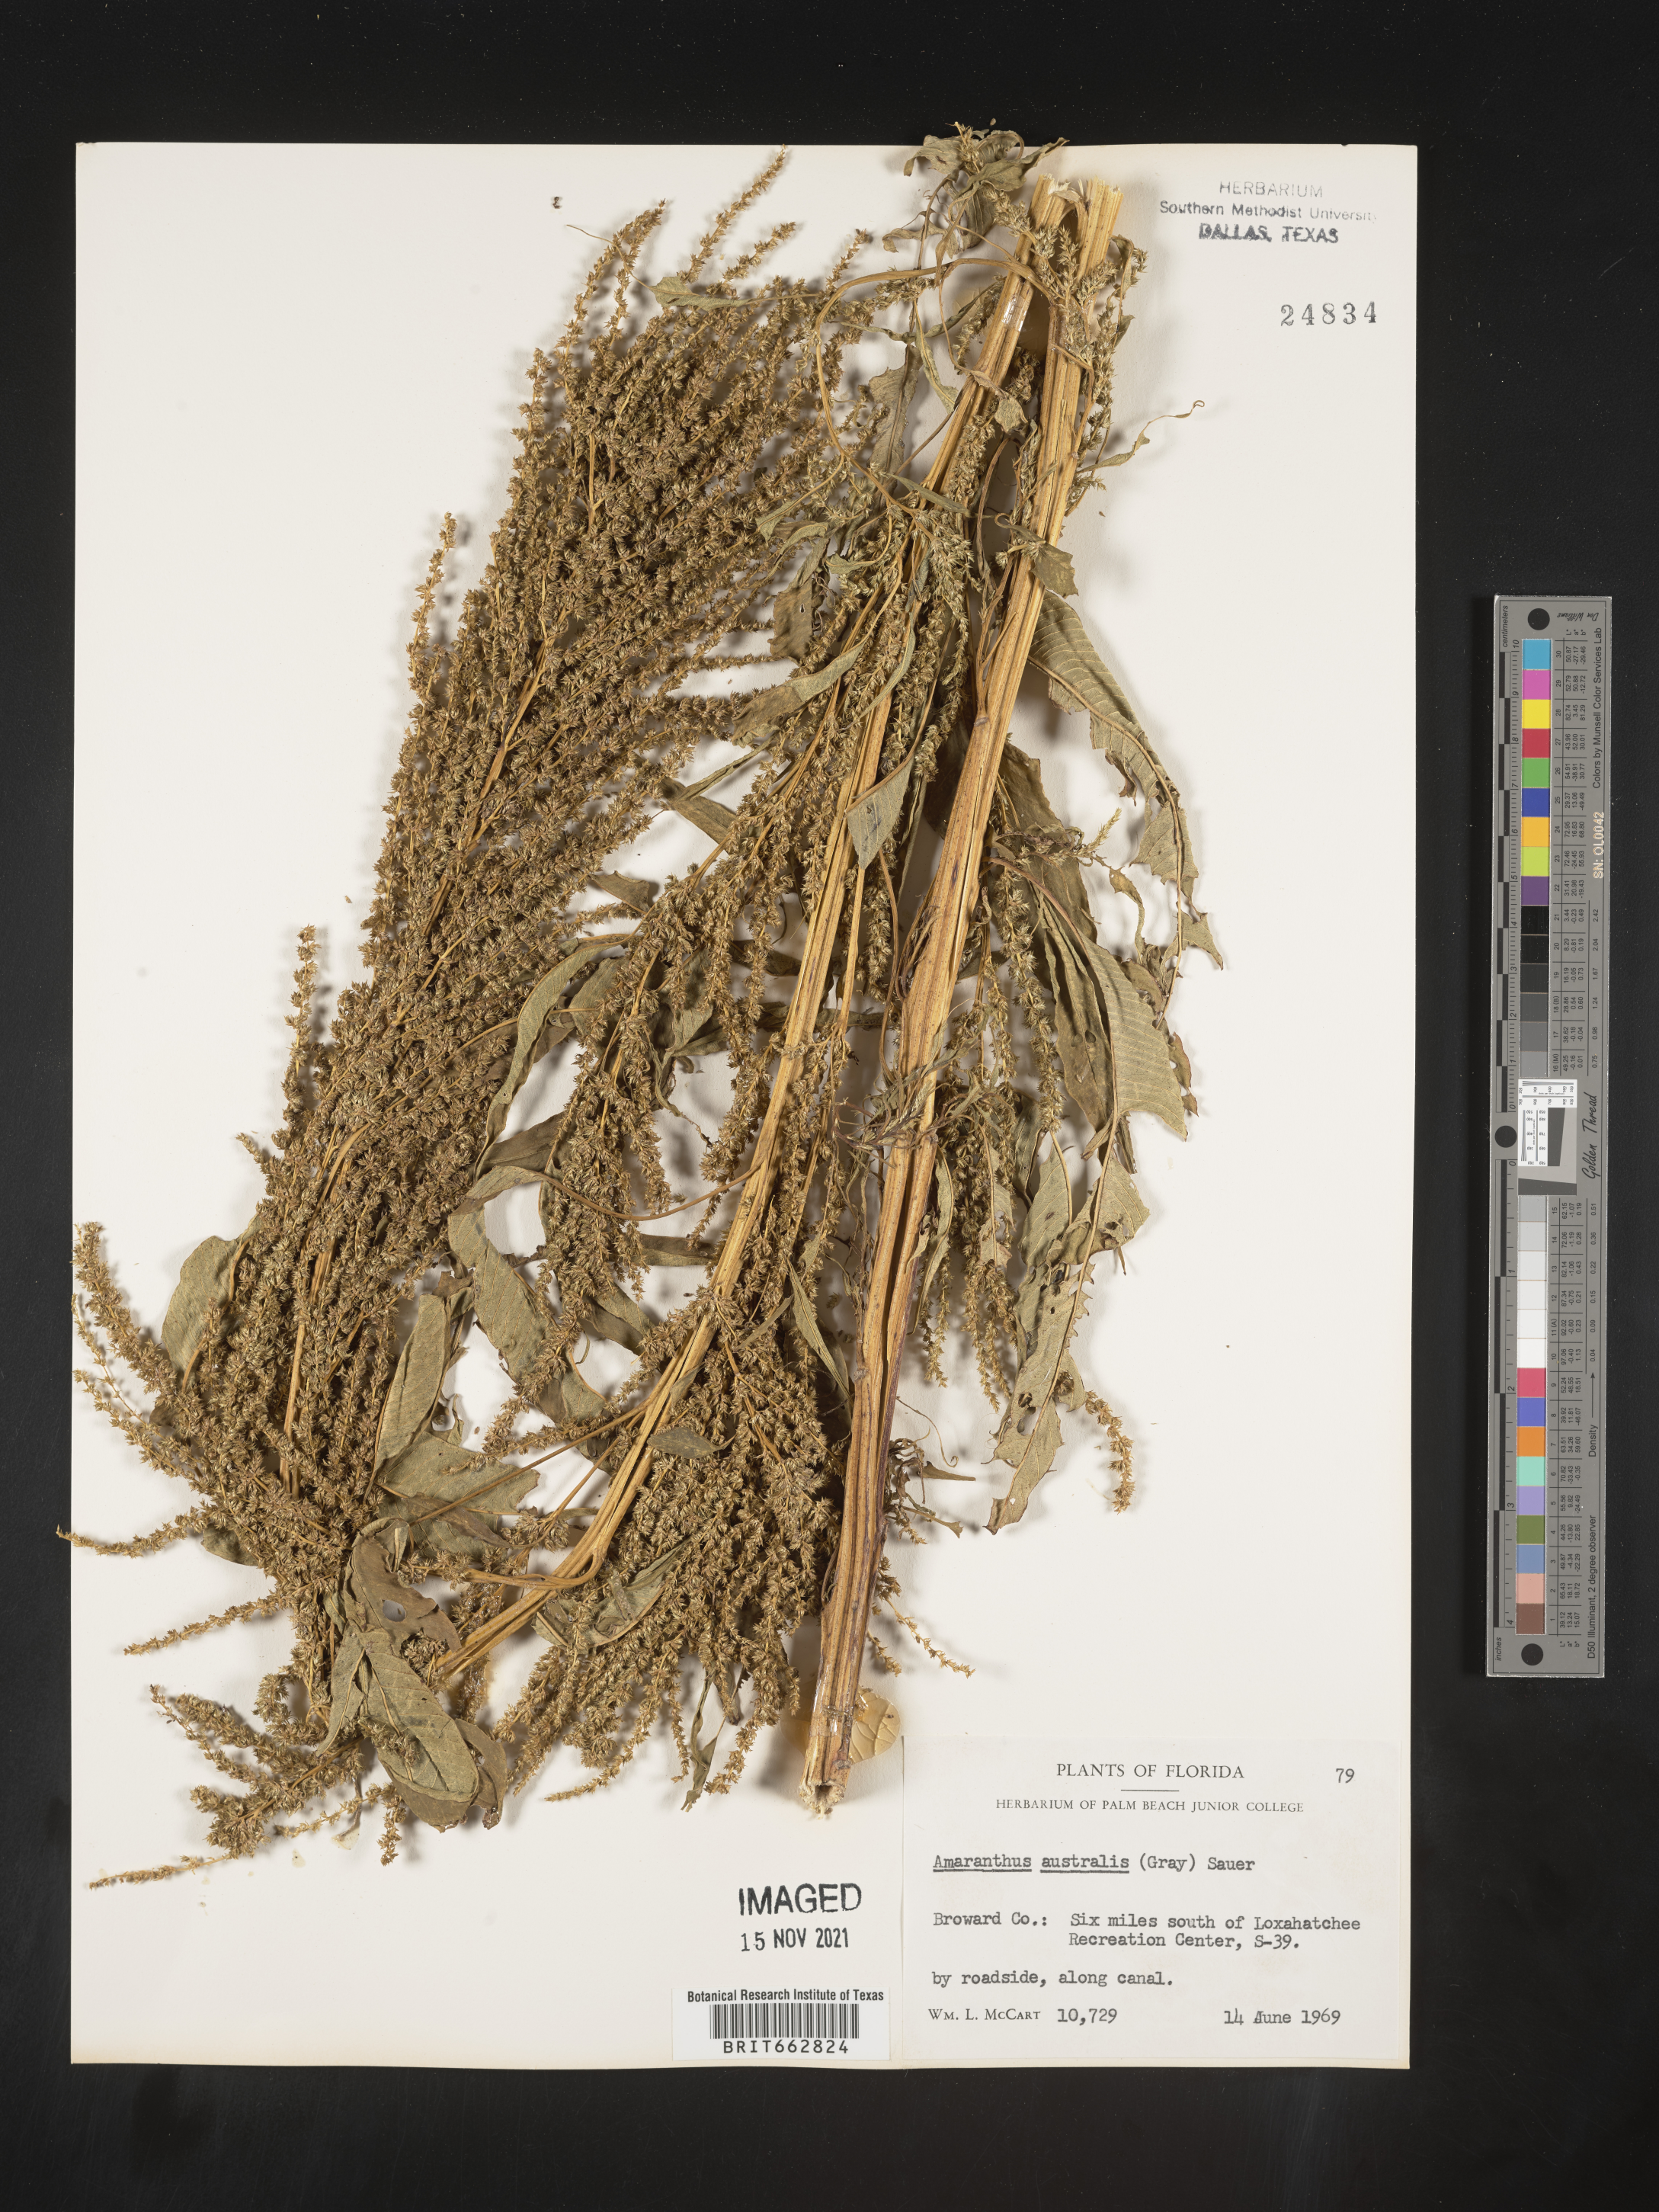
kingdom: Plantae
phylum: Tracheophyta
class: Magnoliopsida
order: Caryophyllales
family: Amaranthaceae
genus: Amaranthus
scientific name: Amaranthus australis
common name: Southern amaranth
